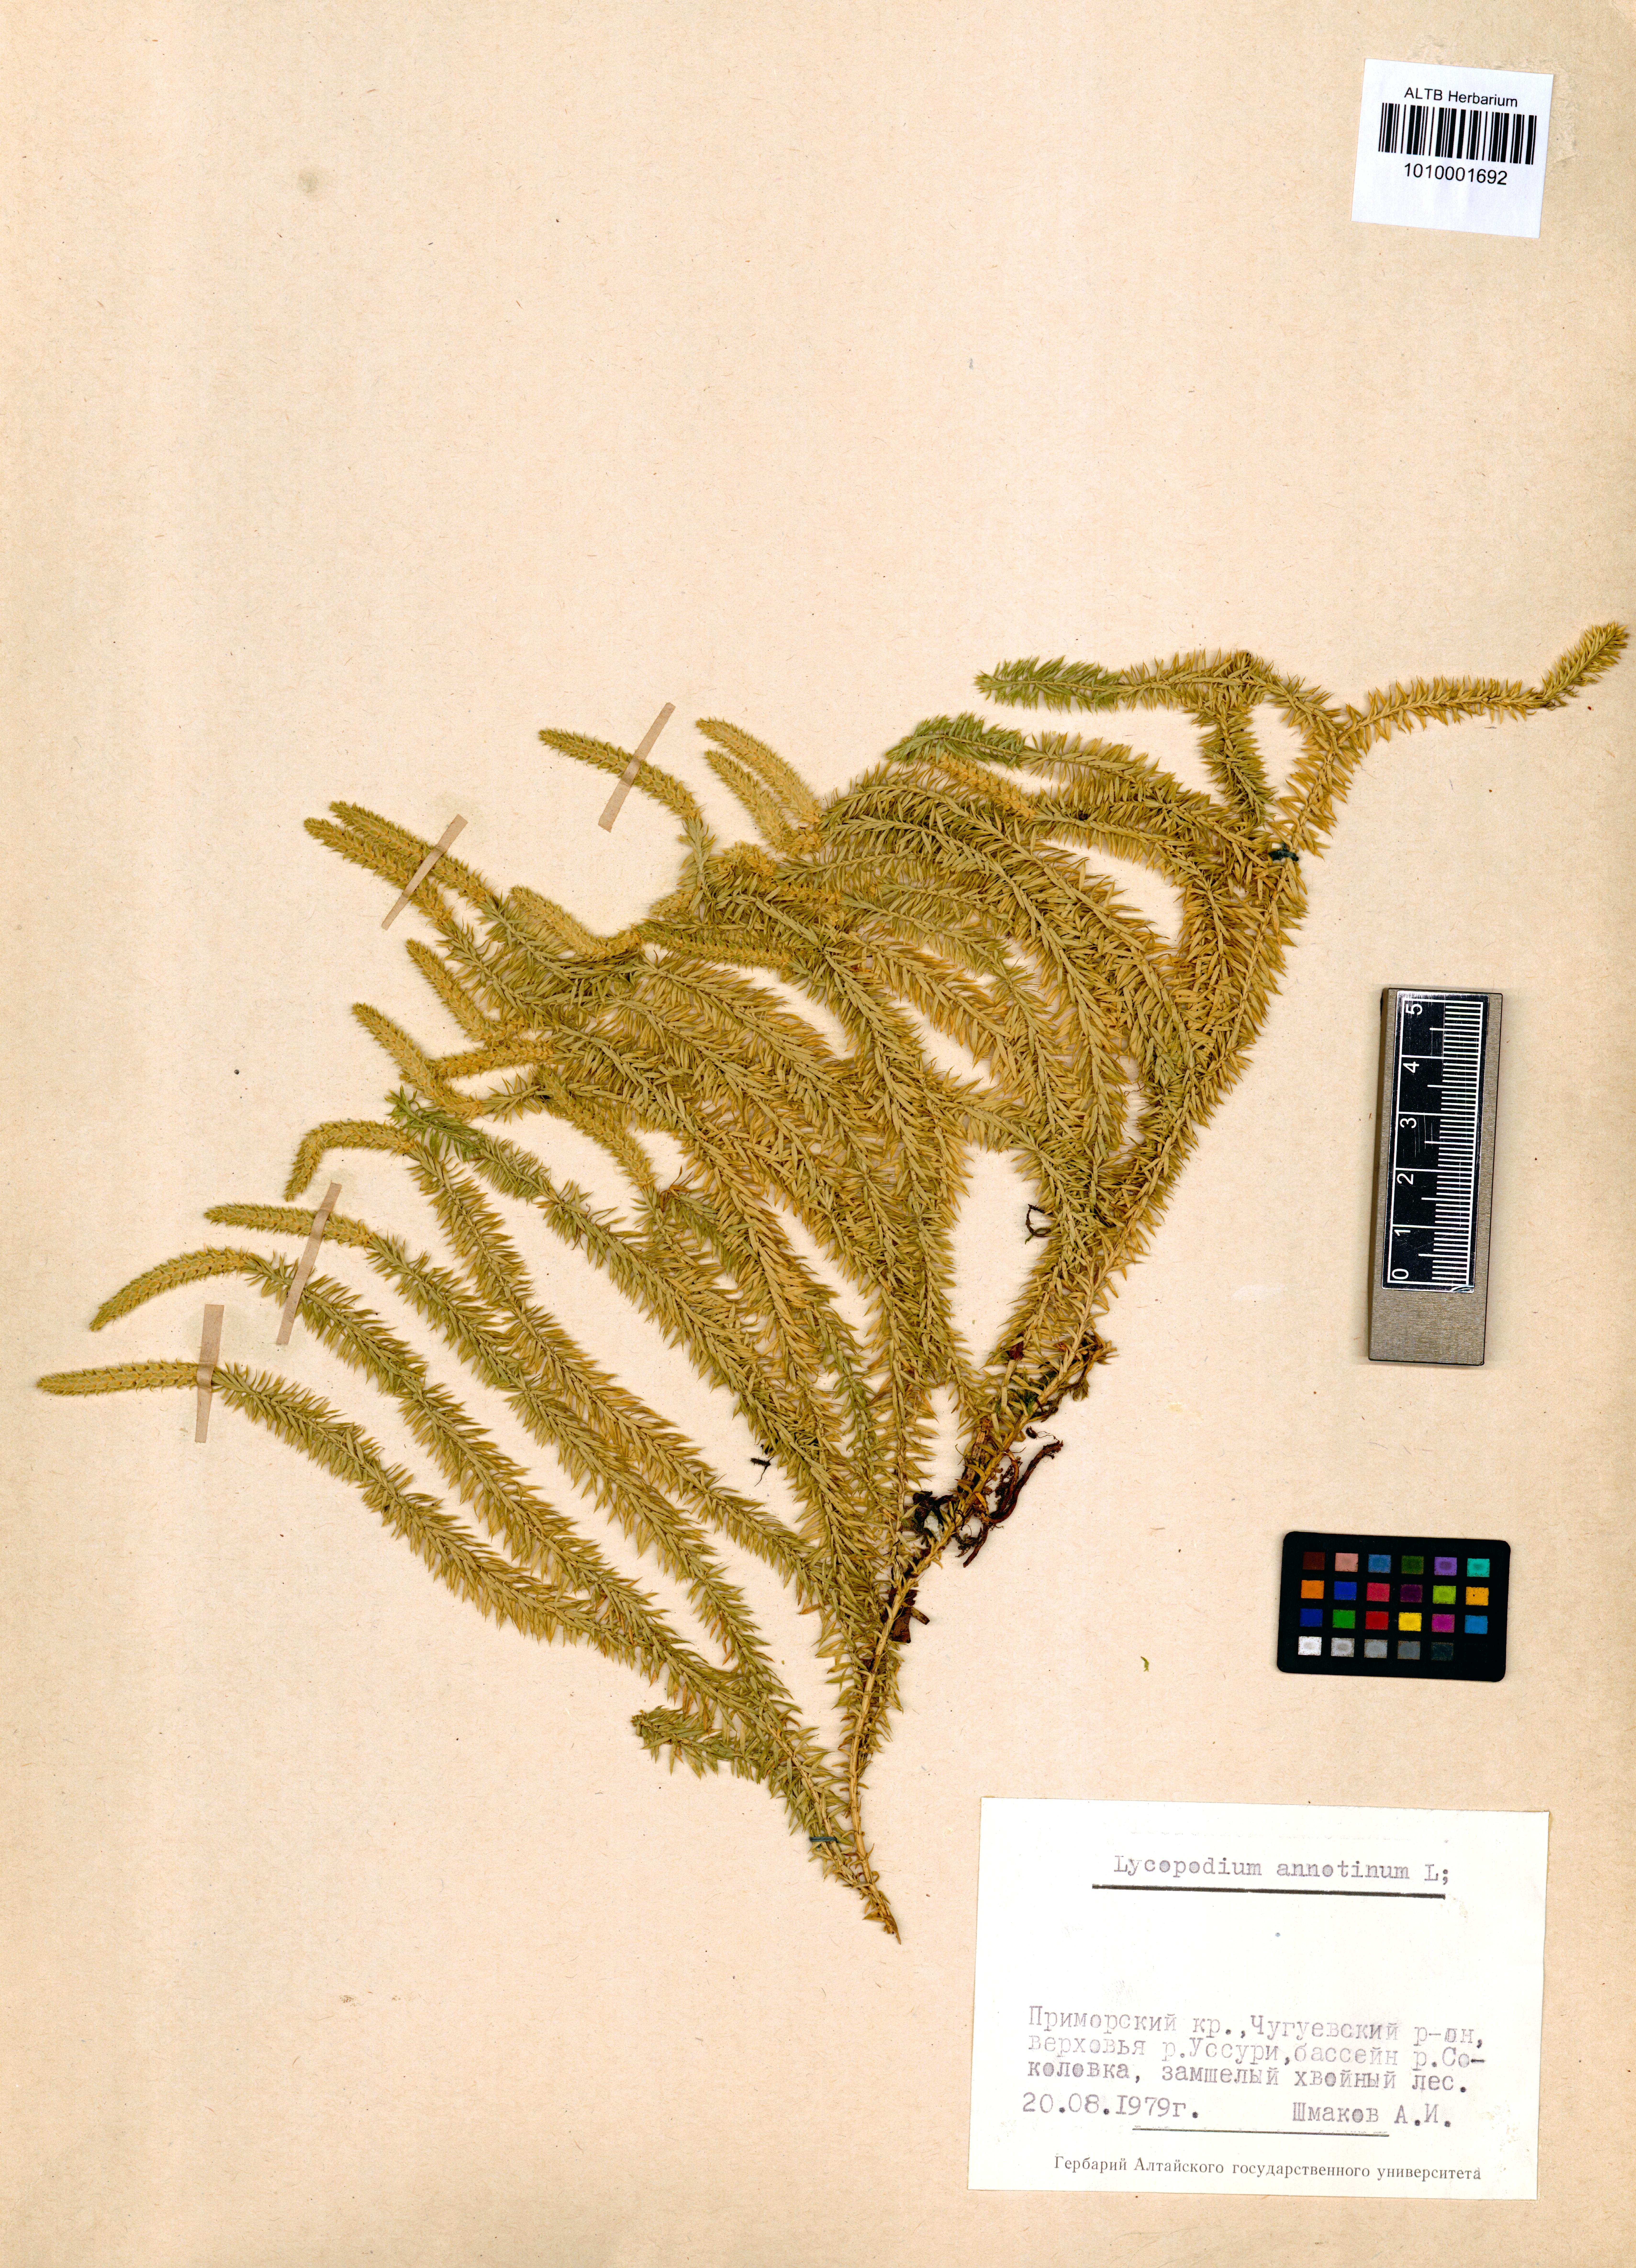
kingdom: Plantae
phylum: Tracheophyta
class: Lycopodiopsida
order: Lycopodiales
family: Lycopodiaceae
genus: Spinulum
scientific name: Spinulum annotinum
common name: Interrupted club-moss
